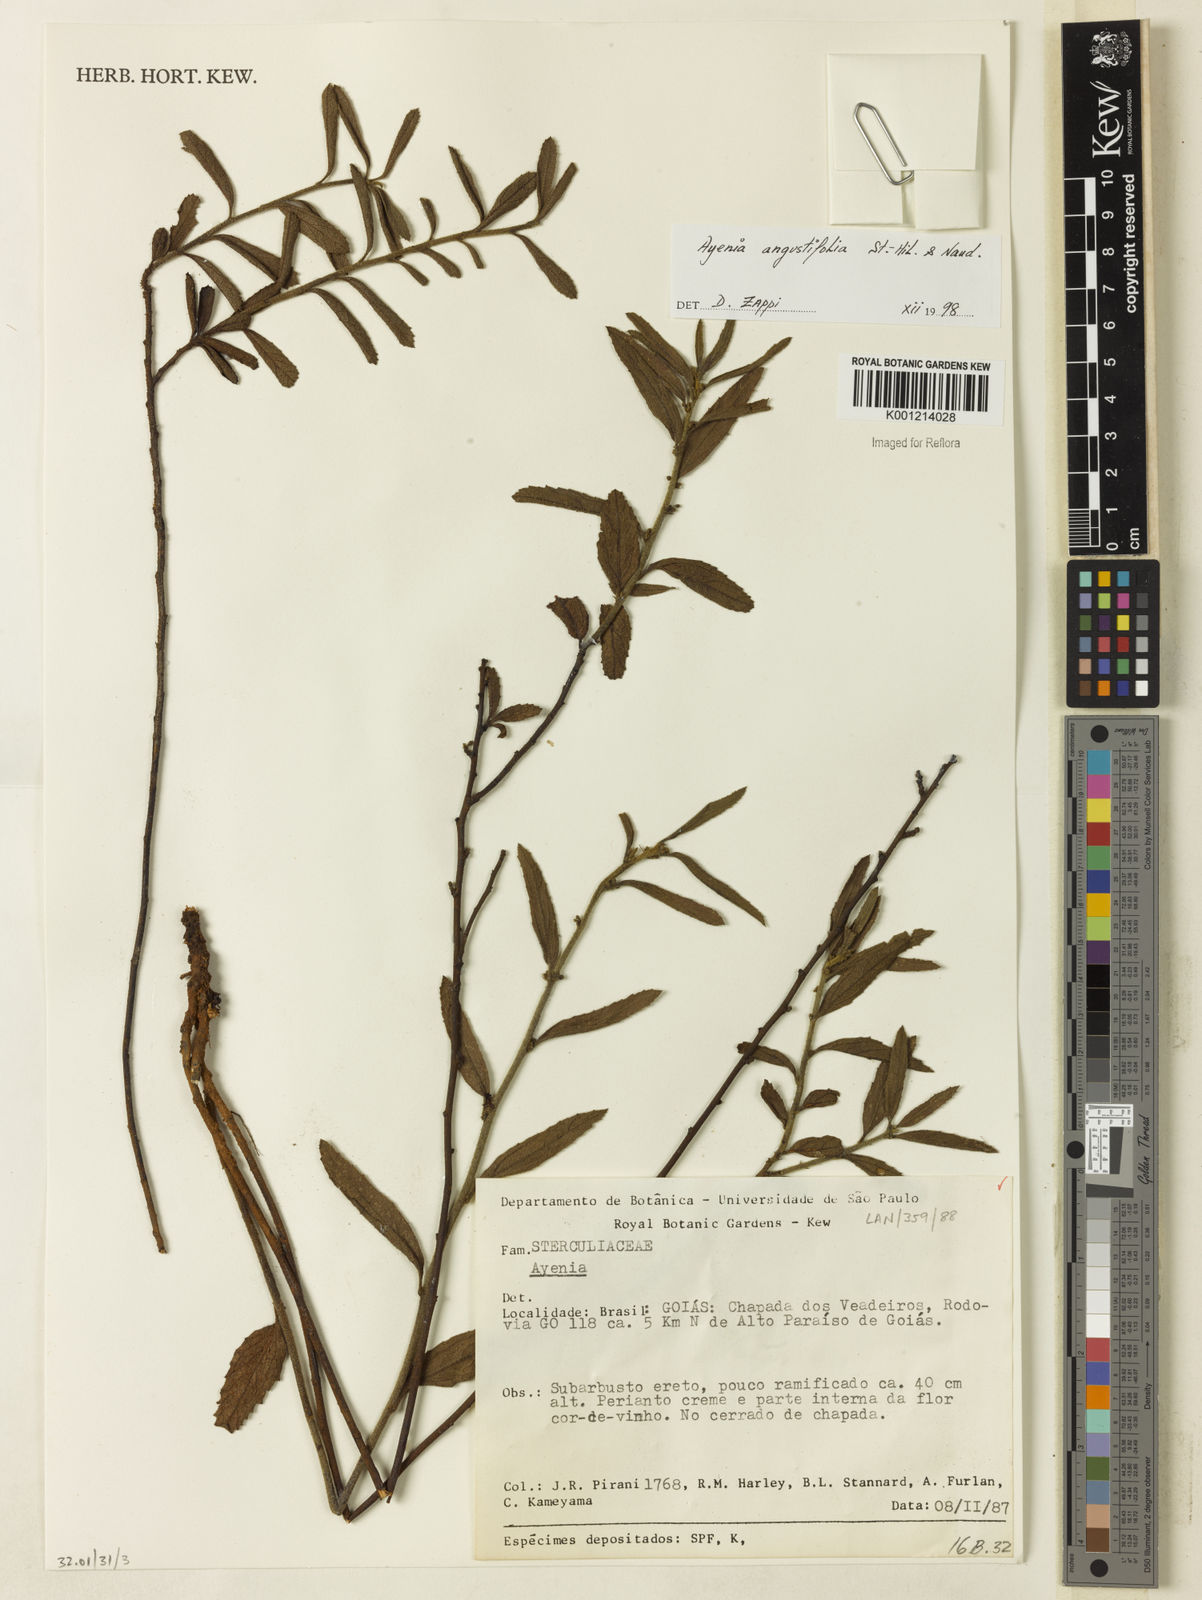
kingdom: Plantae
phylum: Tracheophyta
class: Magnoliopsida
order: Malvales
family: Malvaceae
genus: Ayenia
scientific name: Ayenia angustifolia
